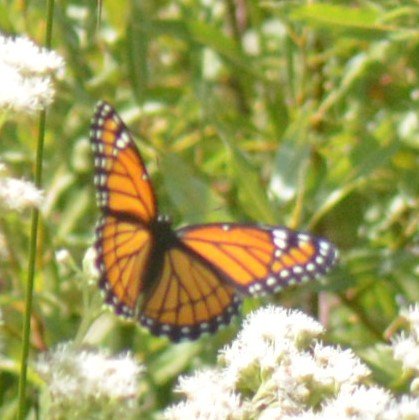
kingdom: Animalia
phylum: Arthropoda
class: Insecta
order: Lepidoptera
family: Nymphalidae
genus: Limenitis
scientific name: Limenitis archippus
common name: Viceroy
